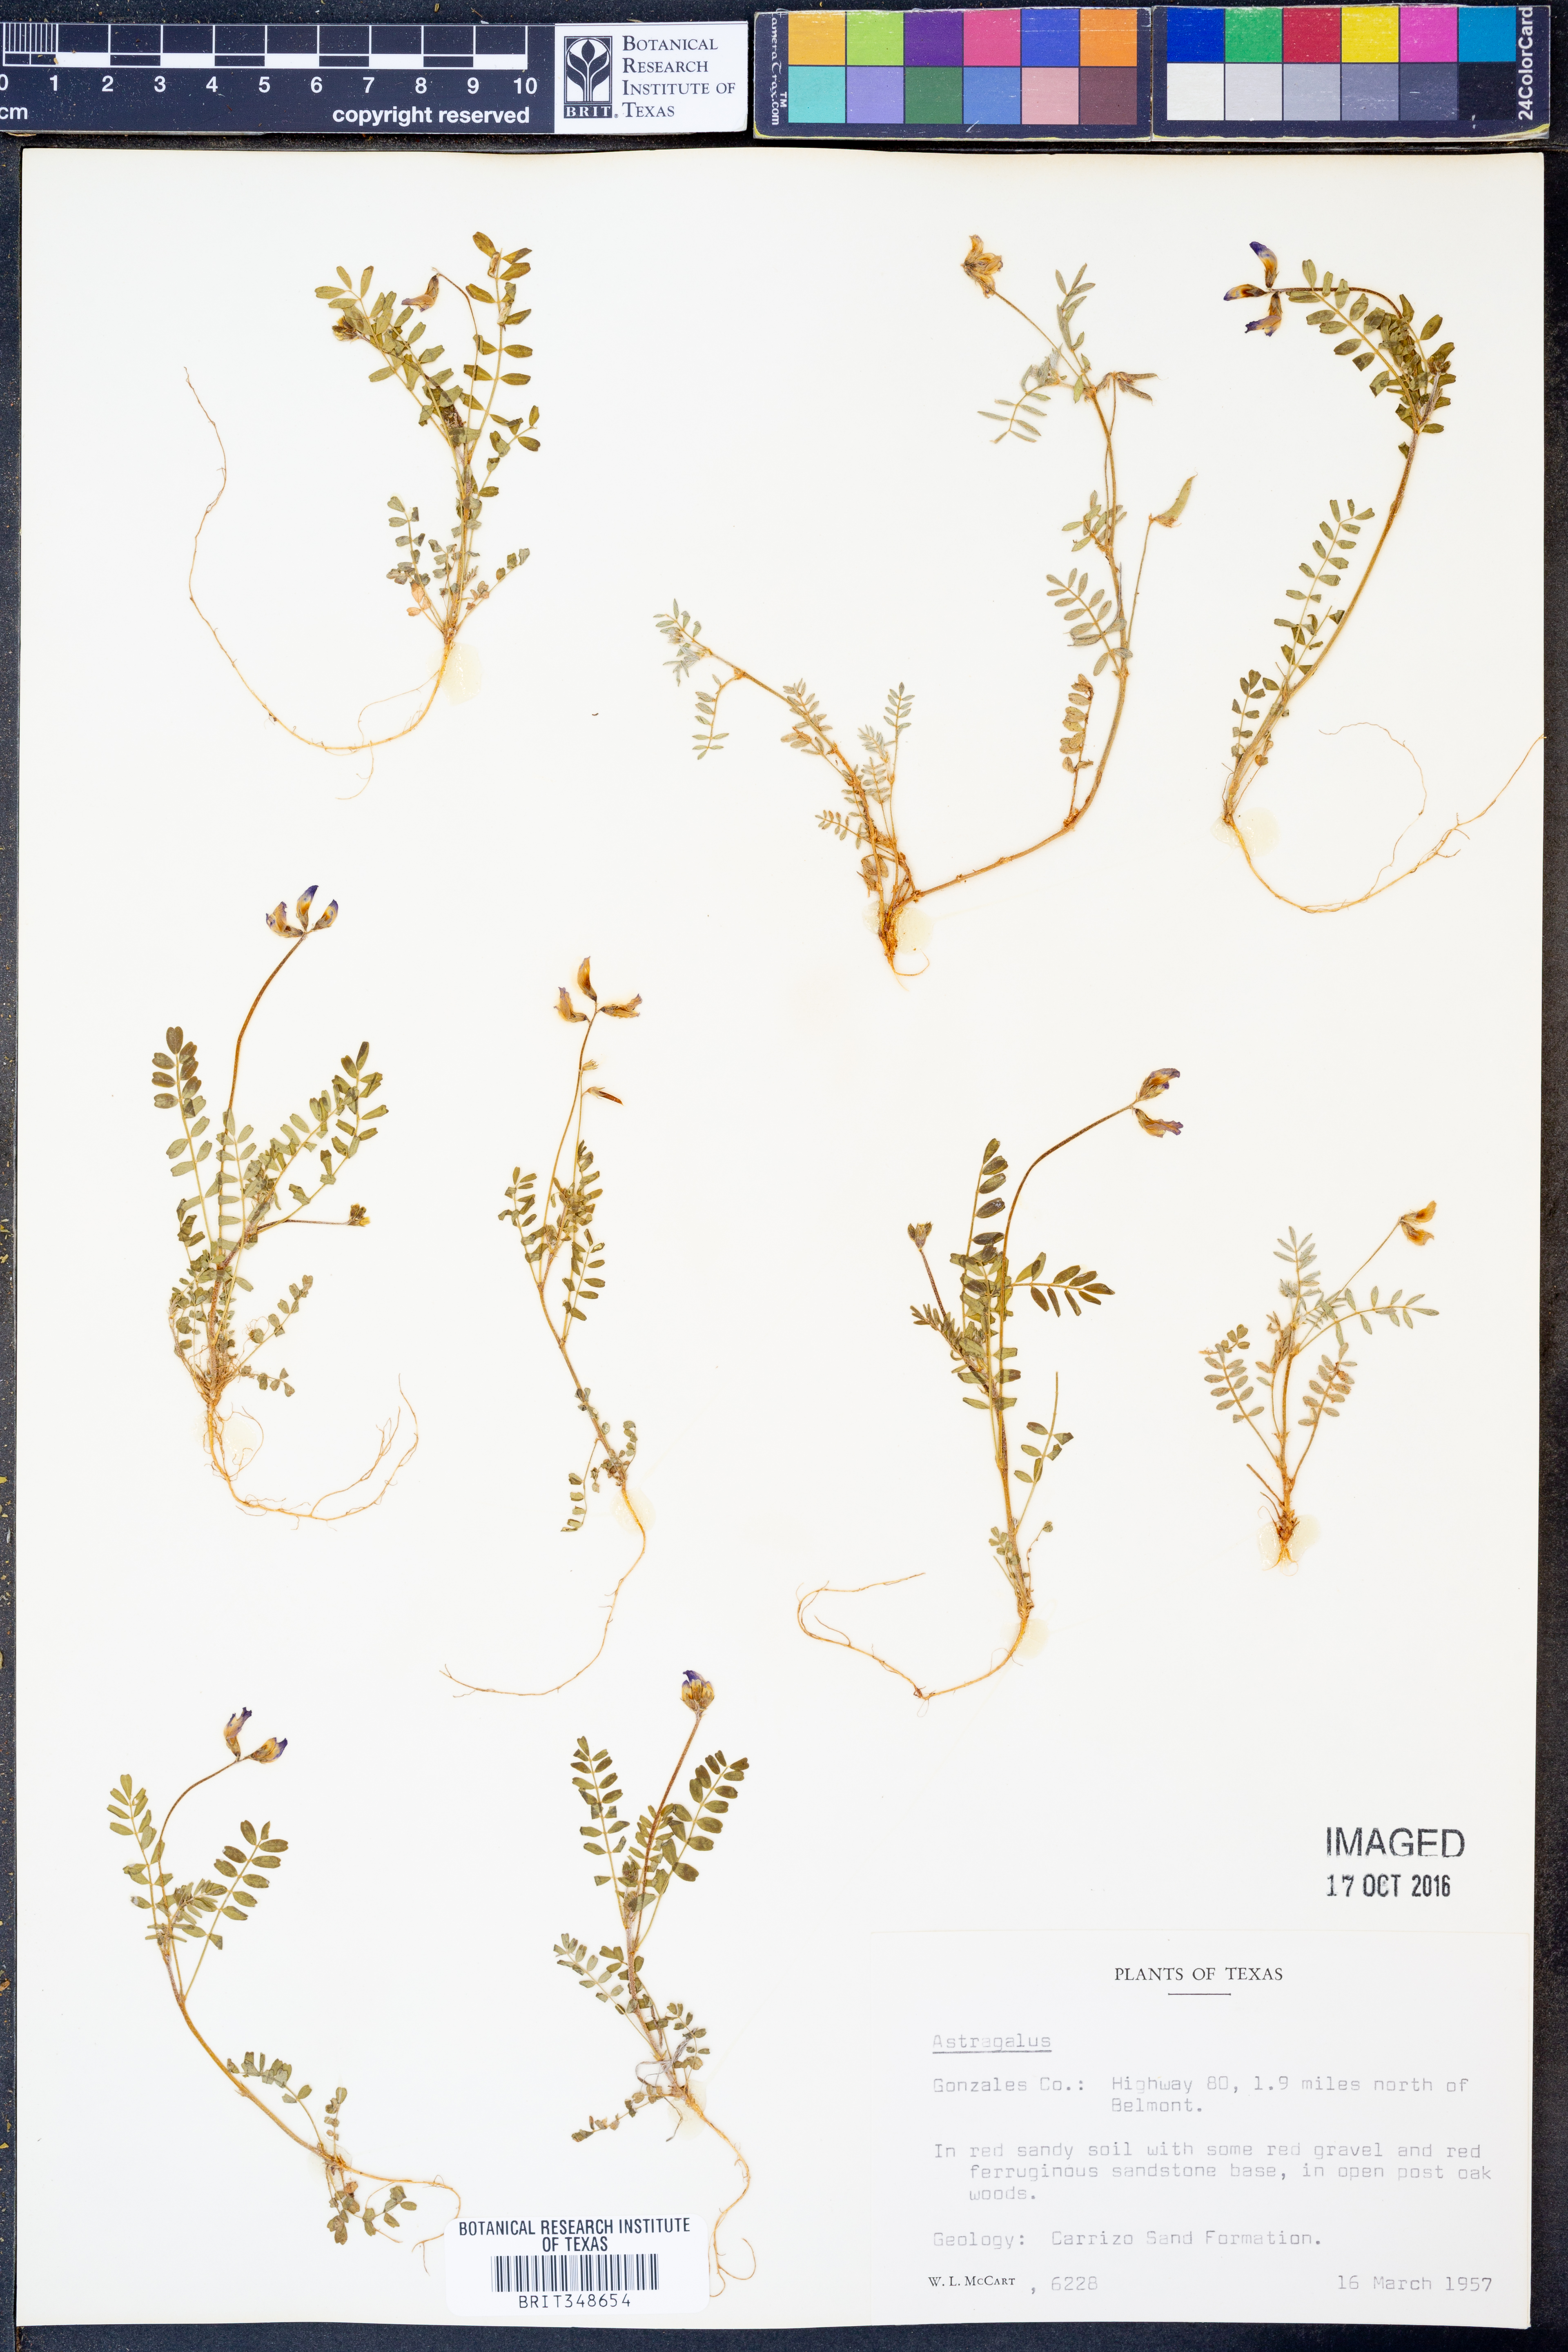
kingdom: Plantae
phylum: Tracheophyta
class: Magnoliopsida
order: Fabales
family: Fabaceae
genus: Astragalus
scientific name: Astragalus
